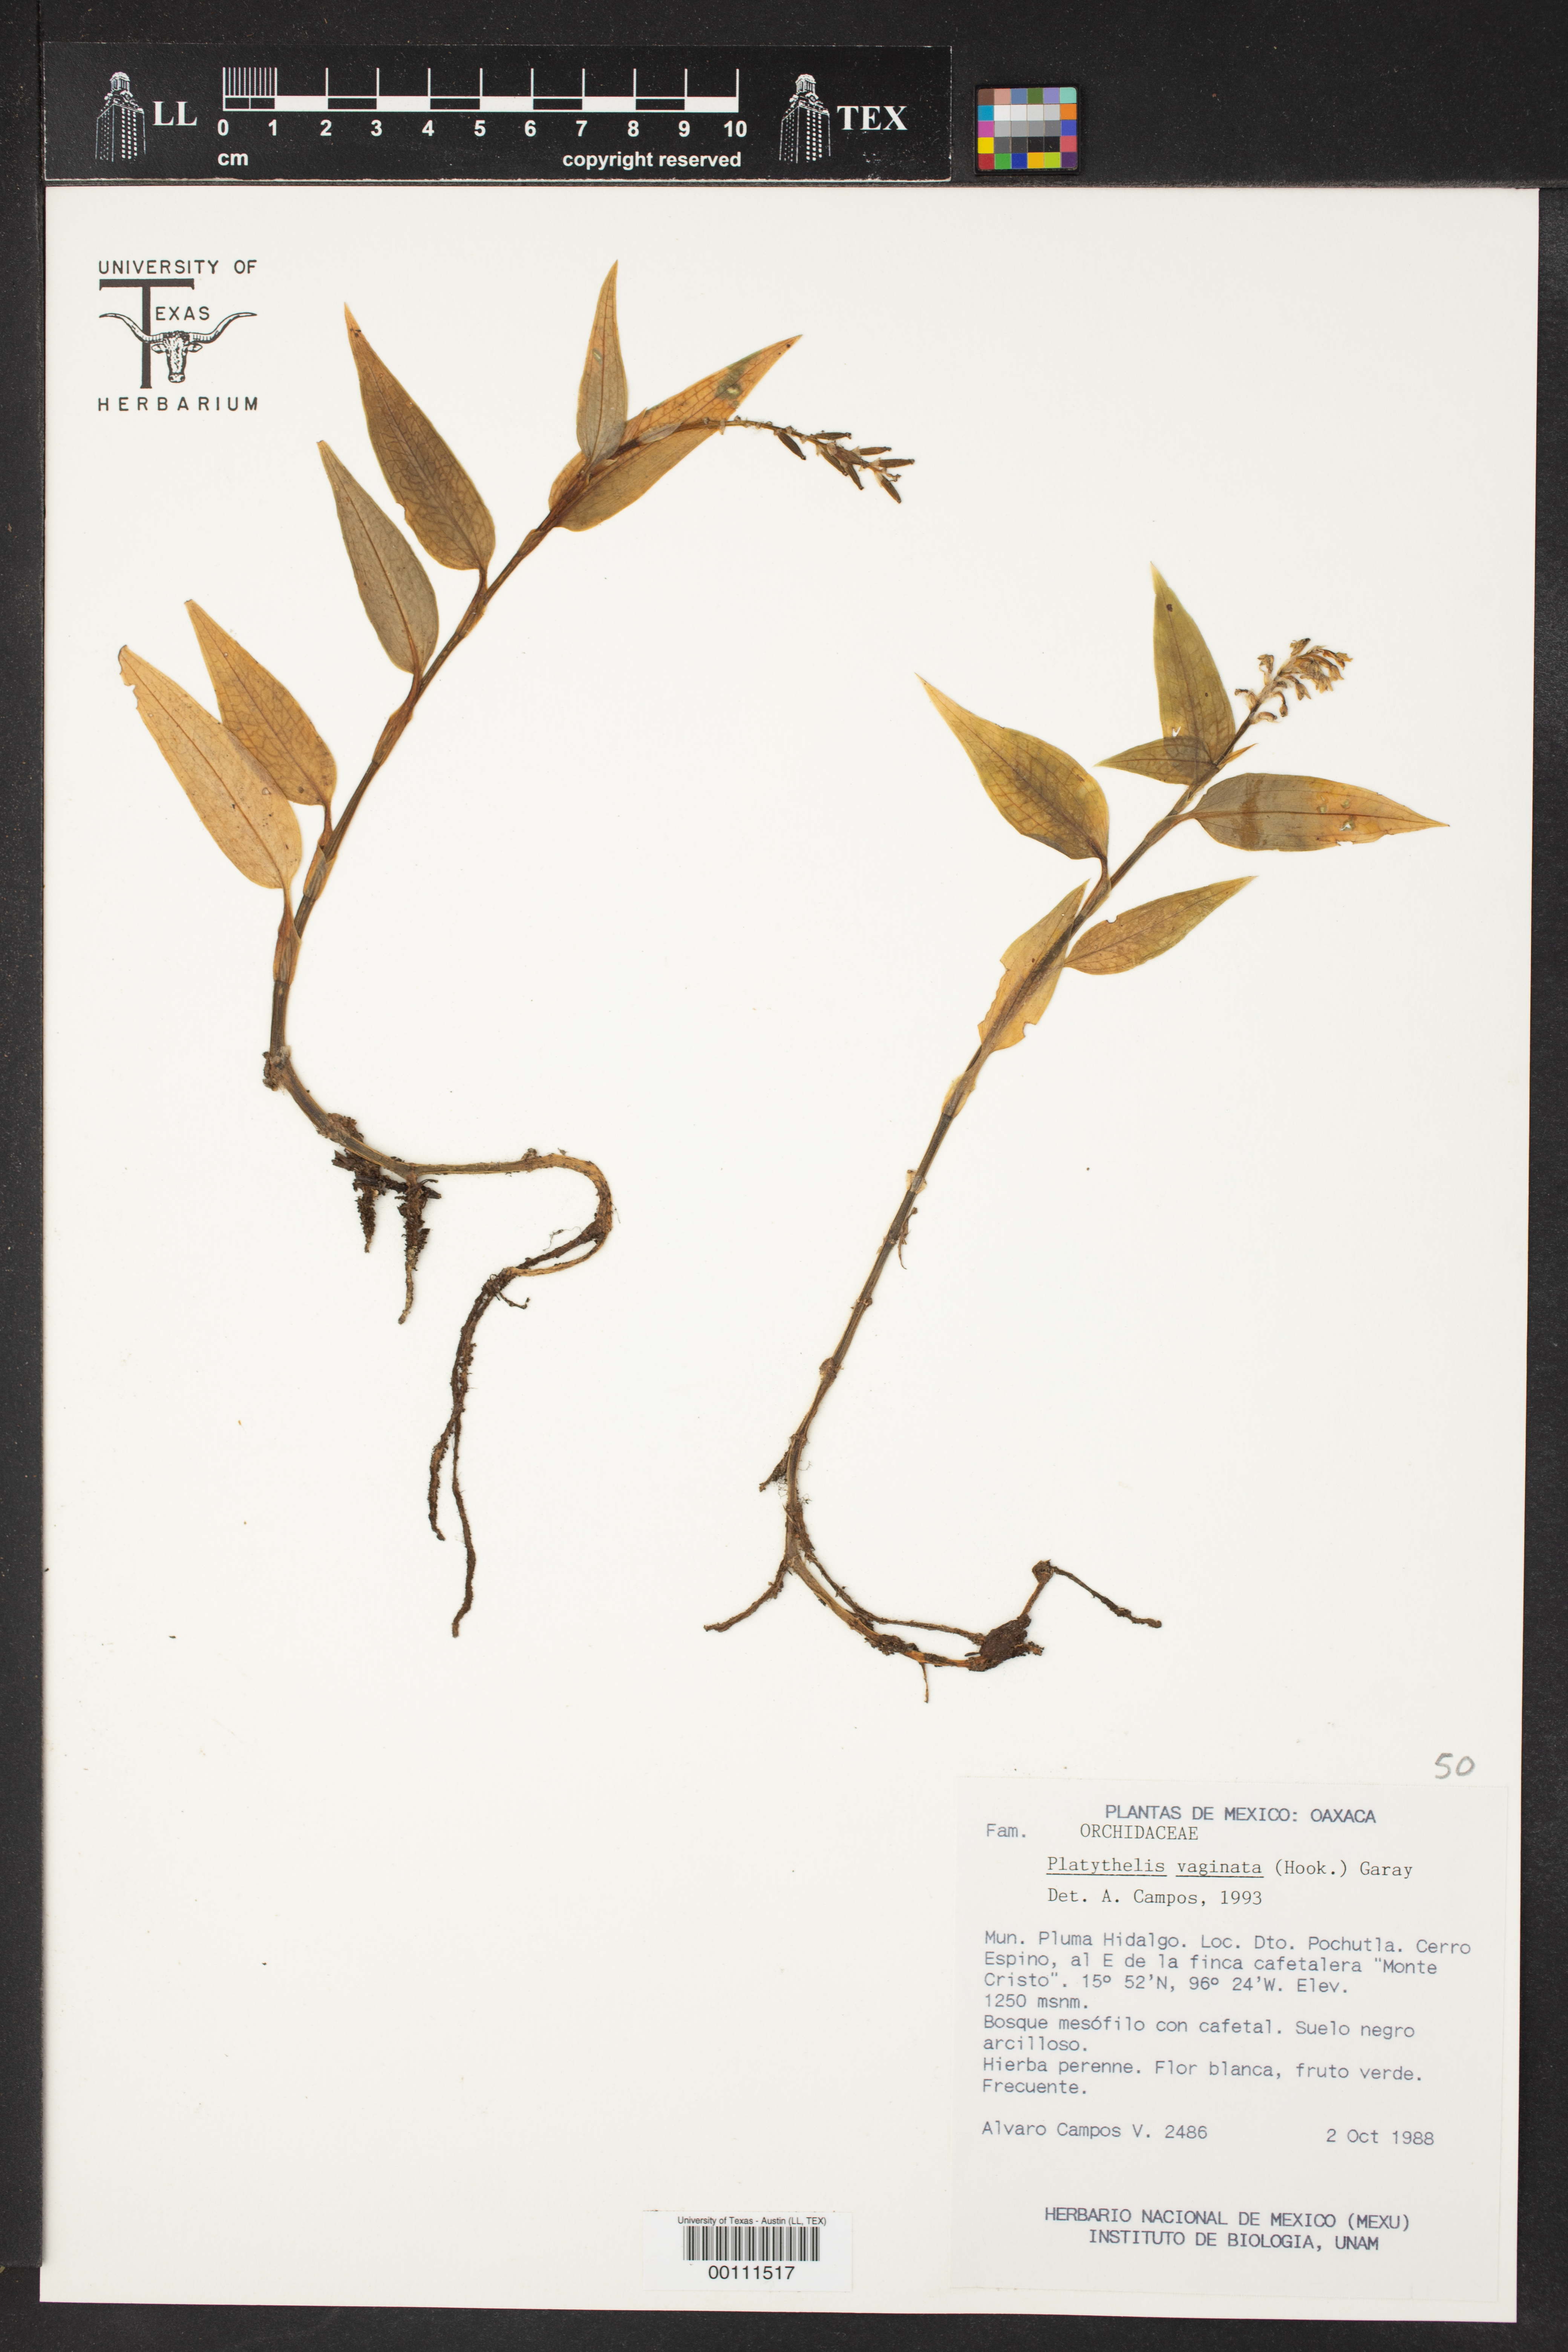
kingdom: Plantae
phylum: Tracheophyta
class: Liliopsida
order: Asparagales
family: Orchidaceae
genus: Aspidogyne
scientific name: Aspidogyne querceticola
